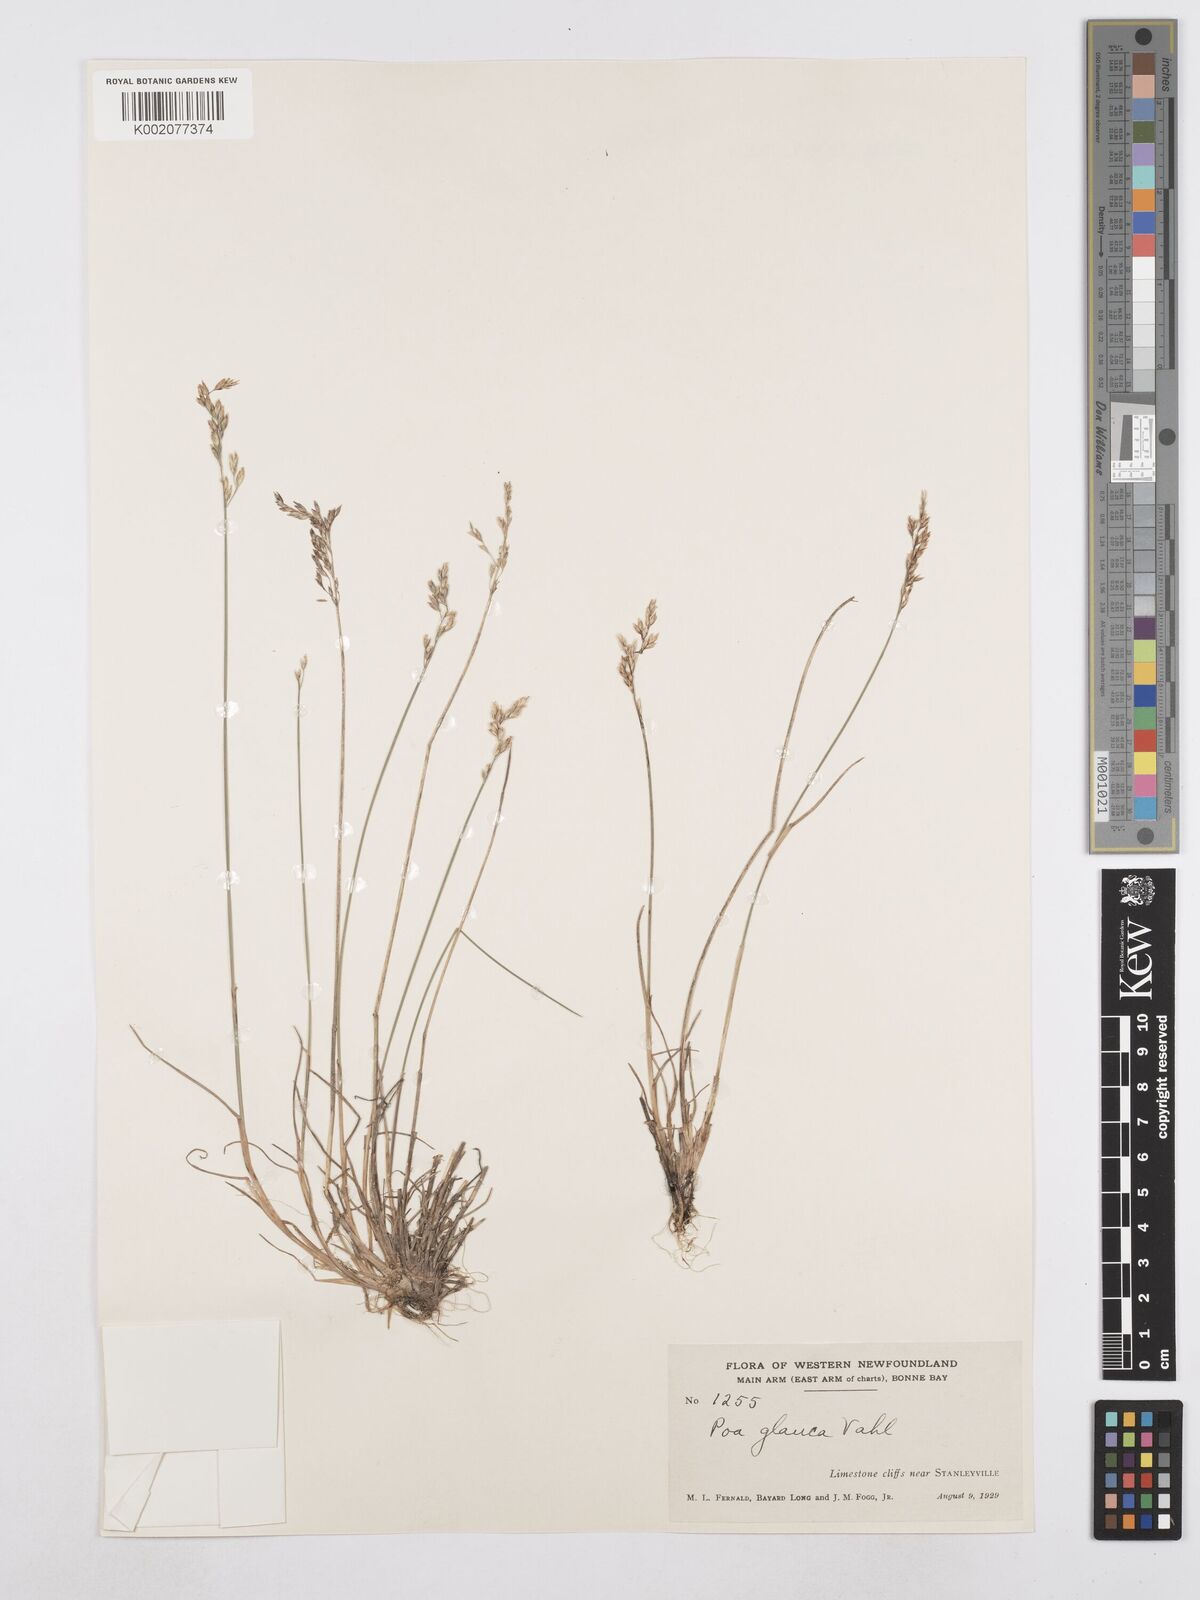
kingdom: Plantae
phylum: Tracheophyta
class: Liliopsida
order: Poales
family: Poaceae
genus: Poa
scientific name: Poa glauca
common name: Glaucous bluegrass
